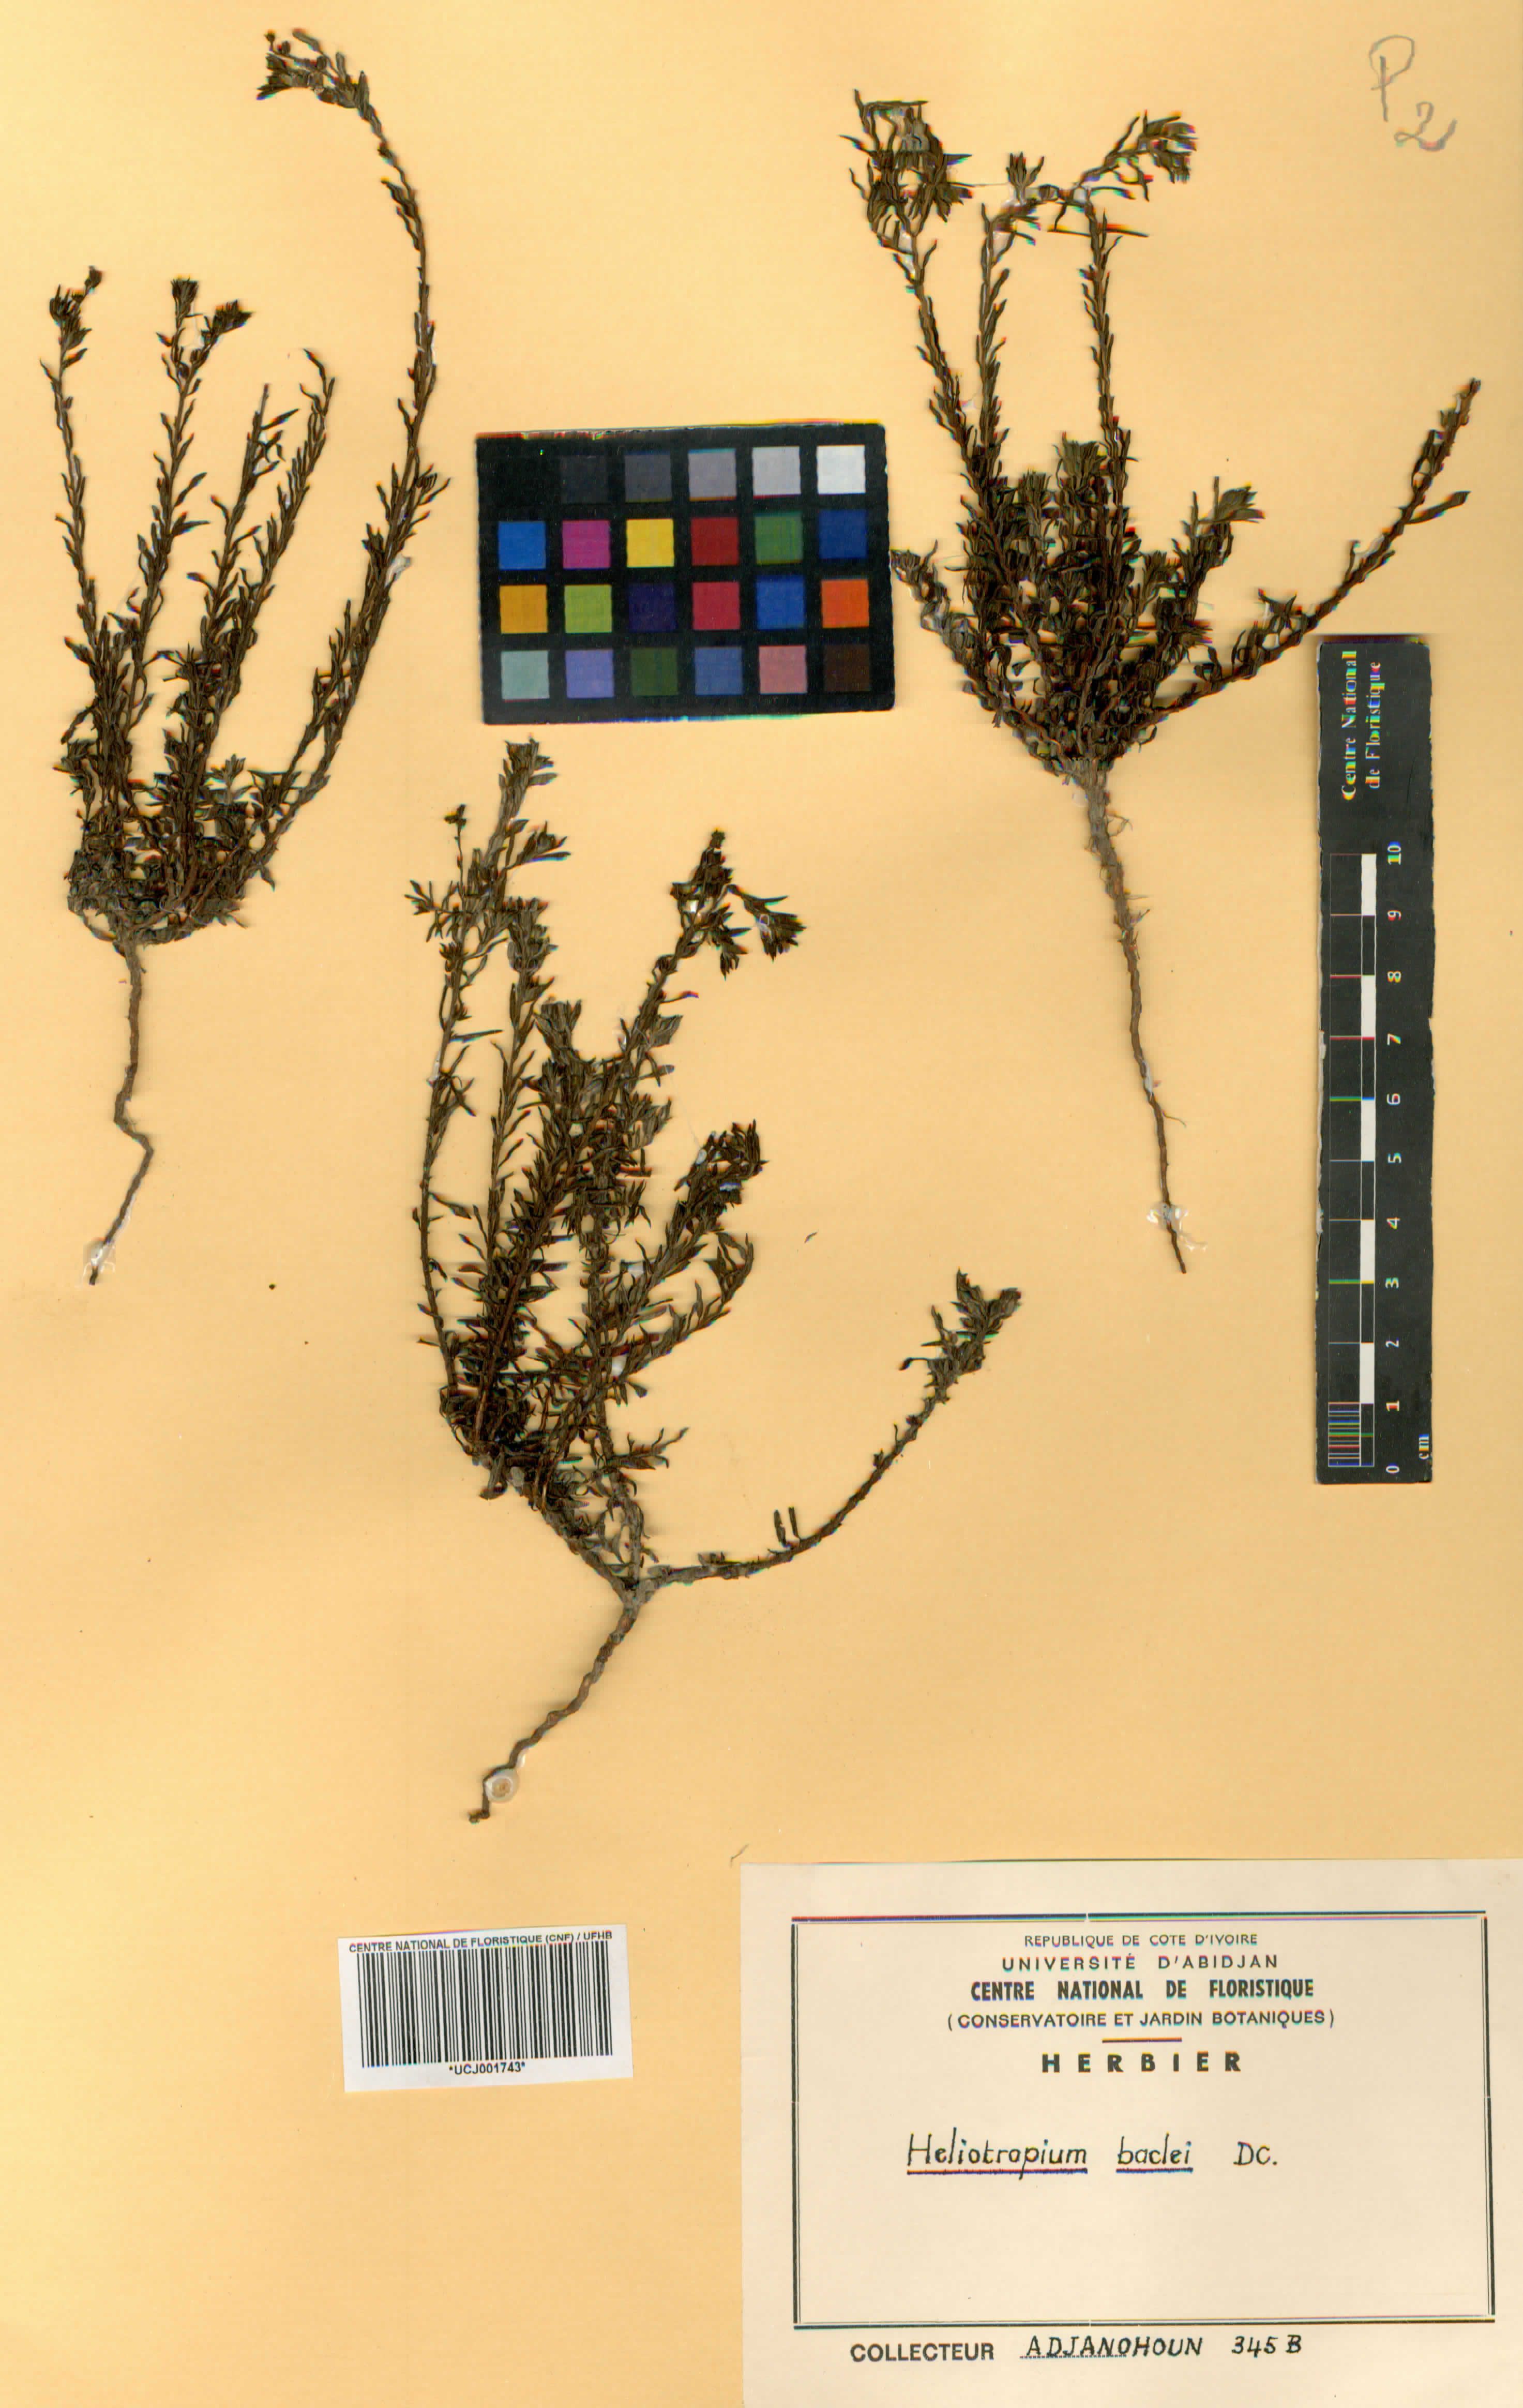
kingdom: Plantae
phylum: Tracheophyta
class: Magnoliopsida
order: Boraginales
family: Heliotropiaceae
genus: Euploca
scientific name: Euploca baclei
